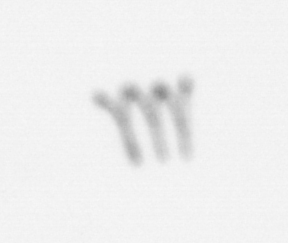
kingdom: Chromista
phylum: Ochrophyta
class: Bacillariophyceae
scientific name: Bacillariophyceae
